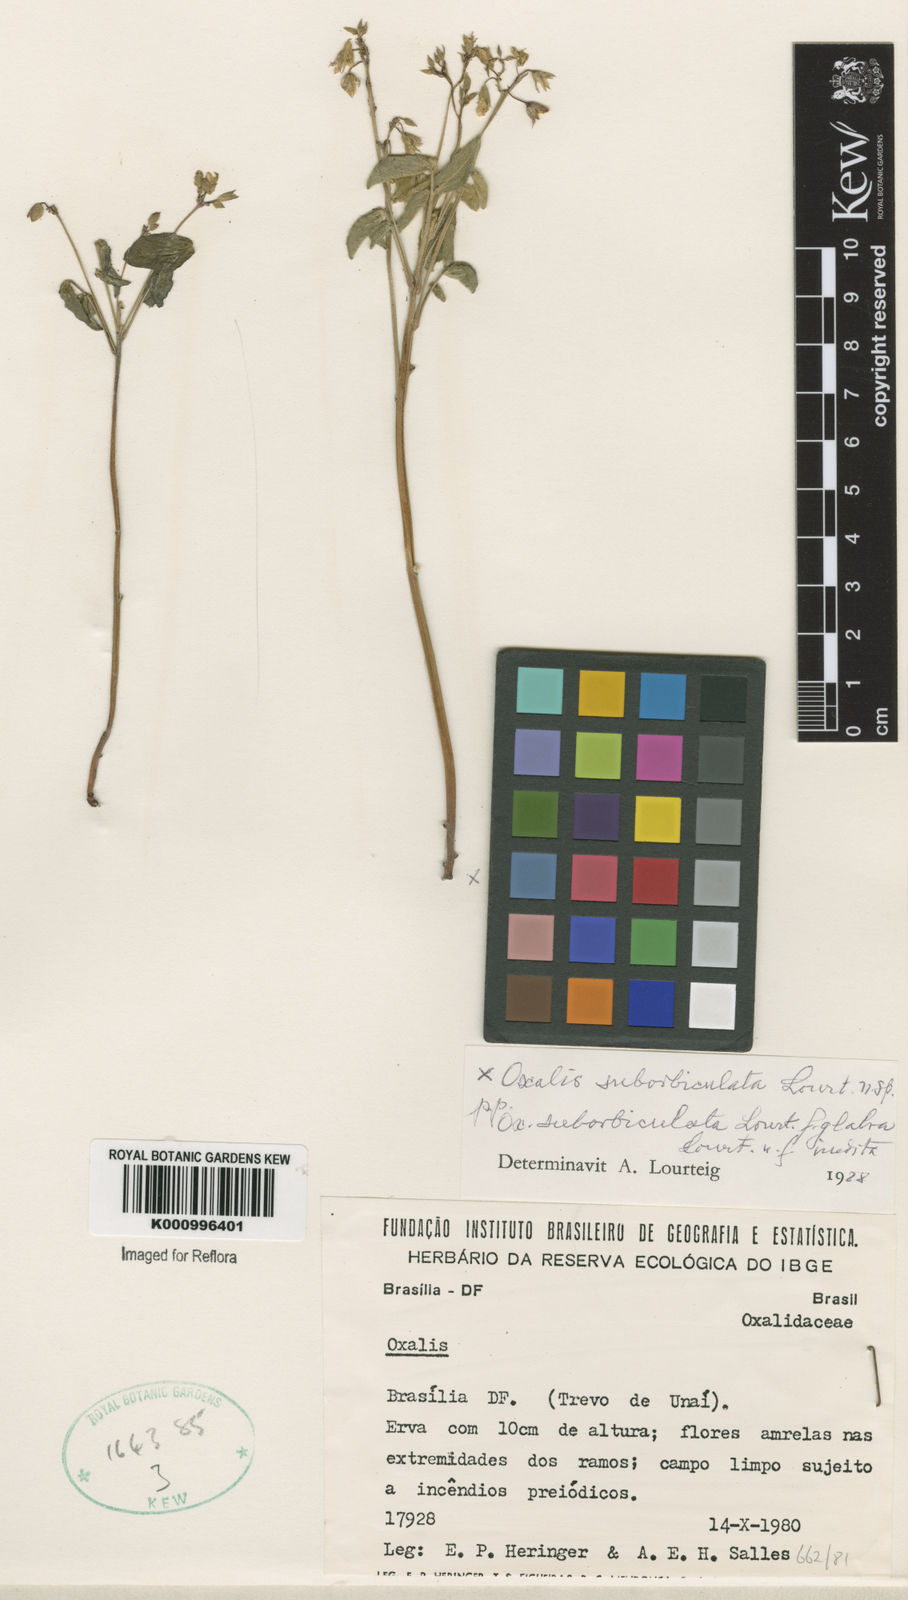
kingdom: Plantae
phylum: Tracheophyta
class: Magnoliopsida
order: Oxalidales
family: Oxalidaceae
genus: Oxalis
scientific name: Oxalis suborbiculata
